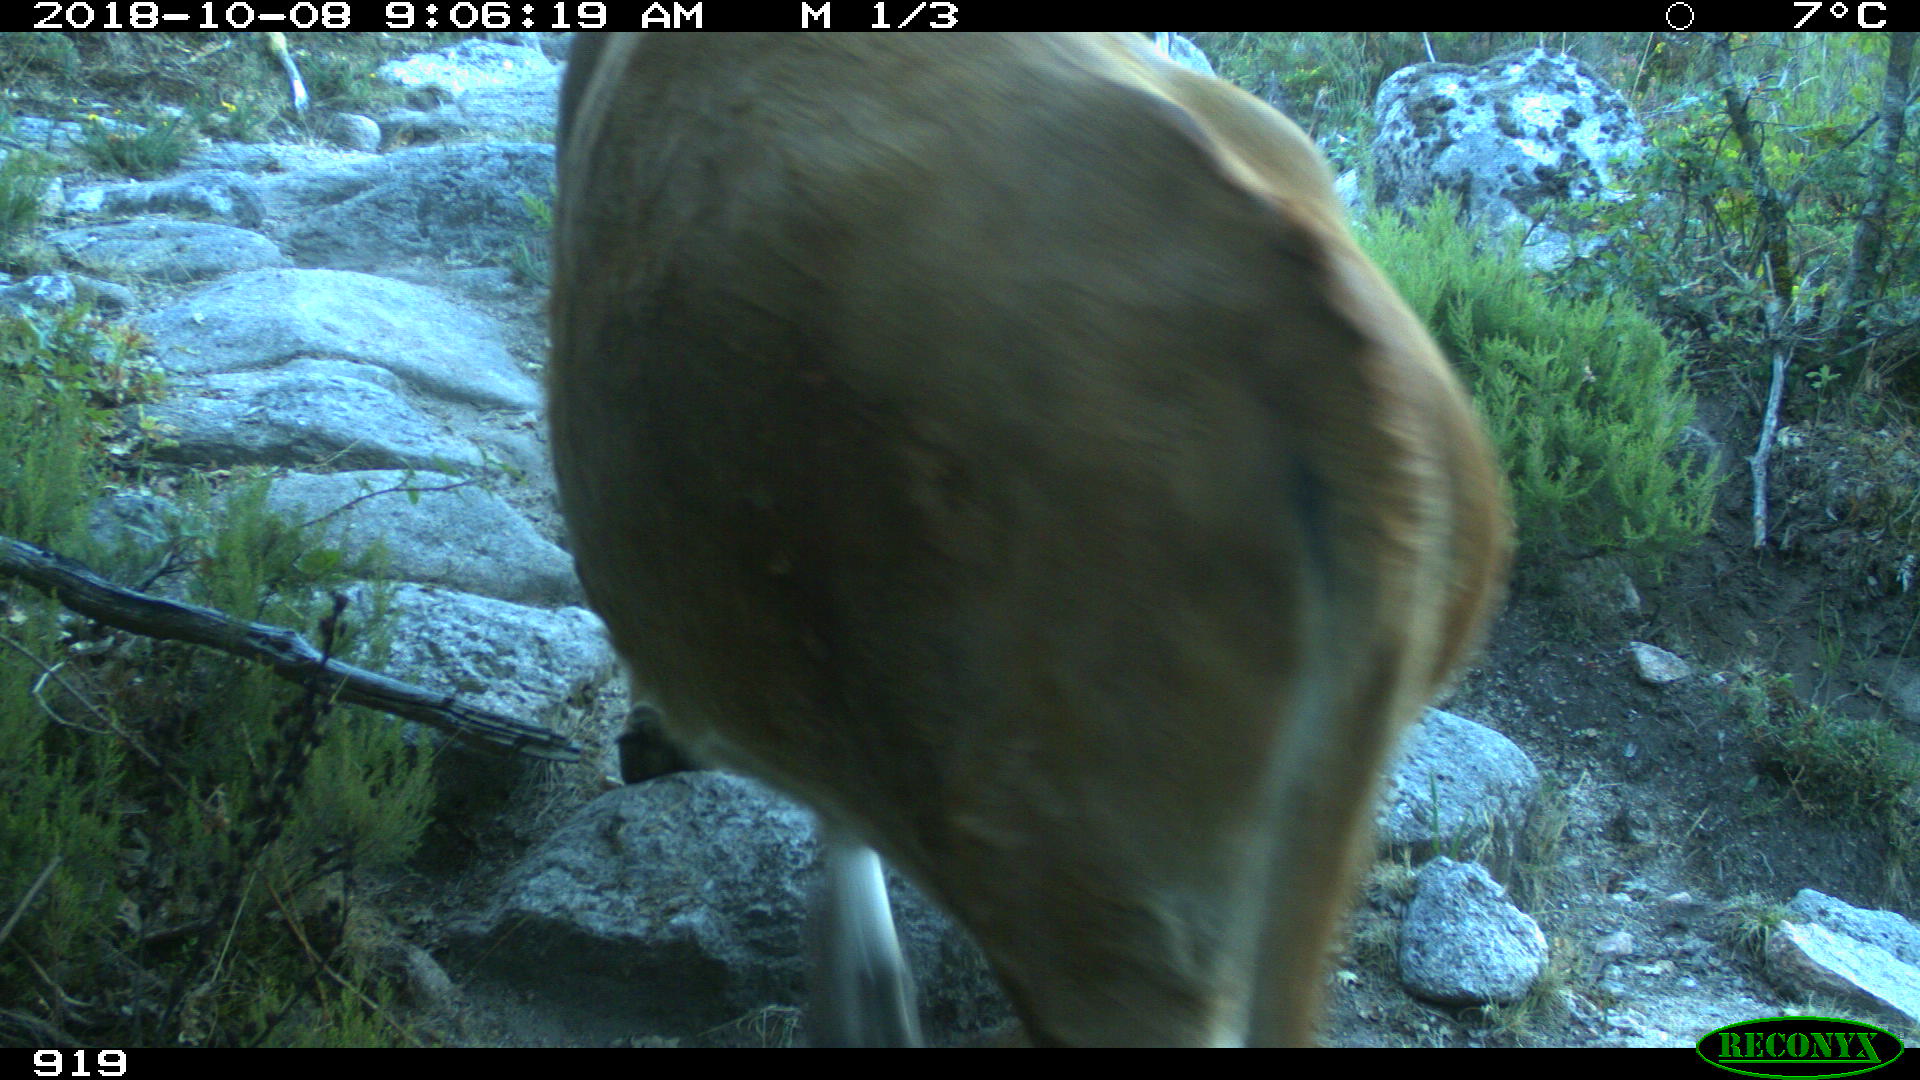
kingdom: Animalia
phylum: Chordata
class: Mammalia
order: Artiodactyla
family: Bovidae
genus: Bos
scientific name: Bos taurus
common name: Domesticated cattle
